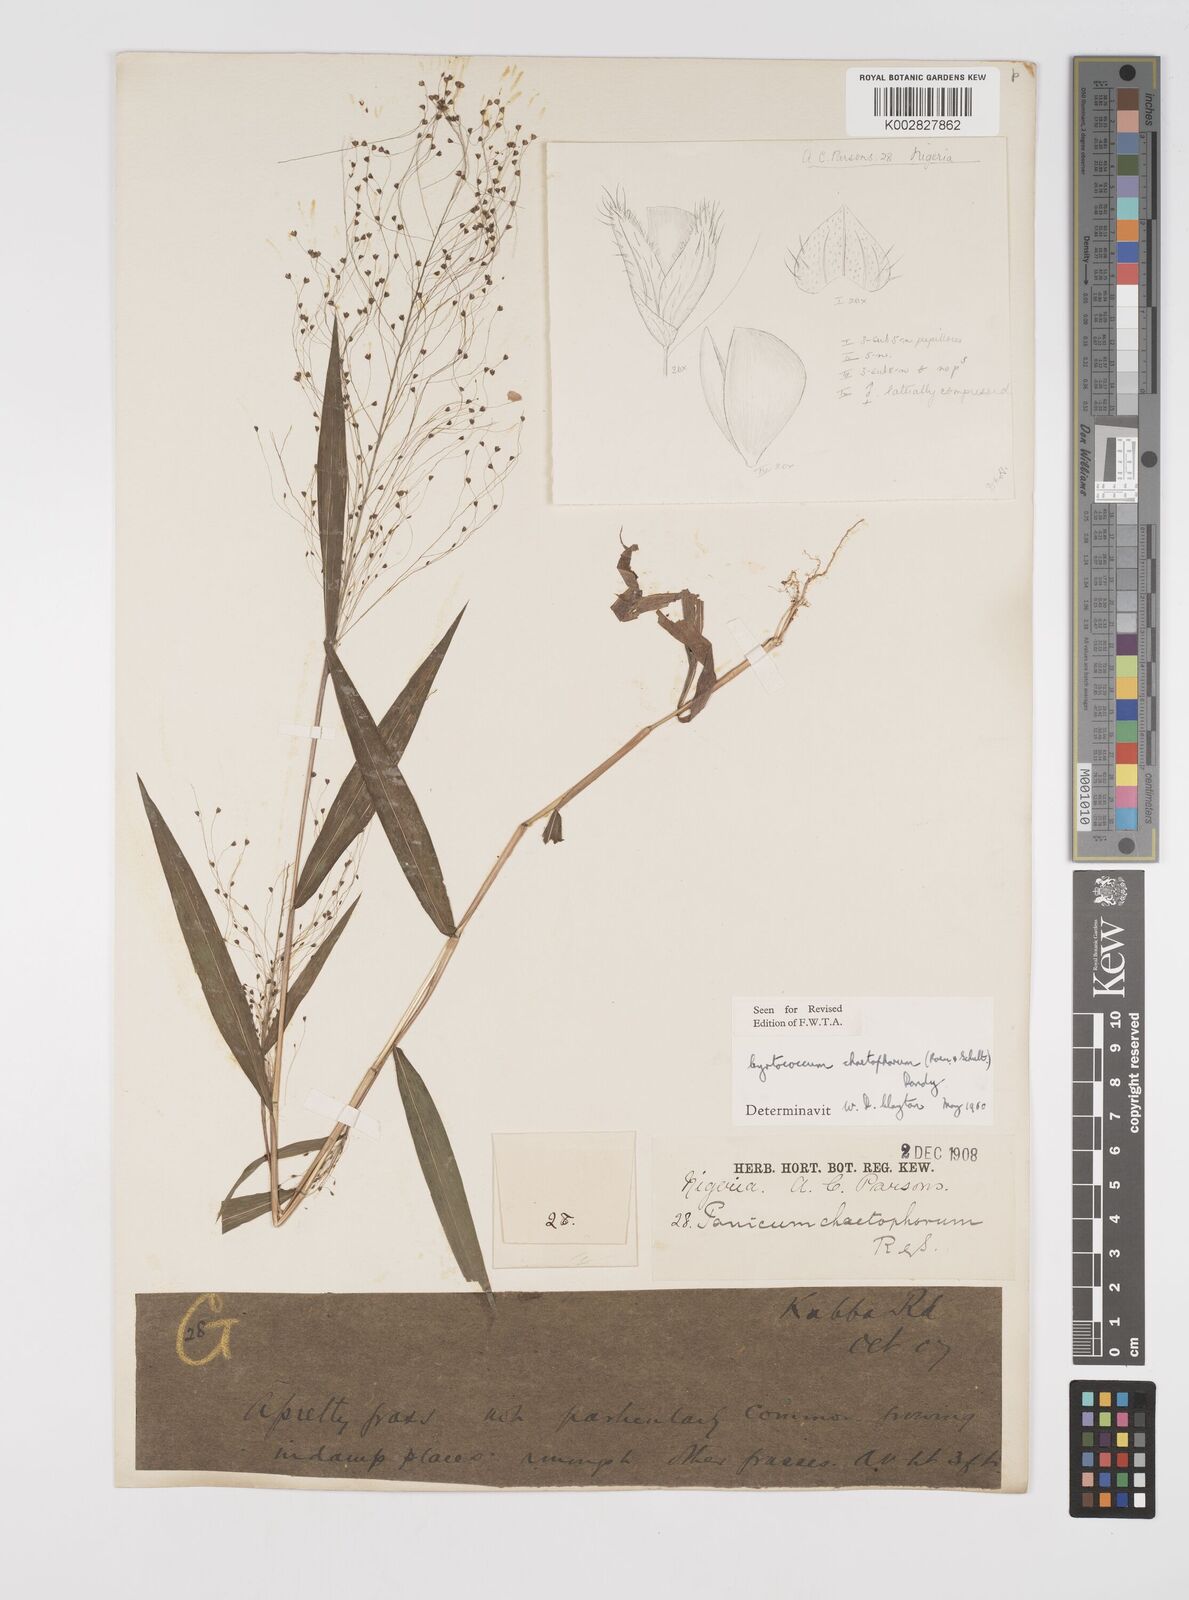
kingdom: Plantae
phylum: Tracheophyta
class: Liliopsida
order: Poales
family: Poaceae
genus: Cyrtococcum
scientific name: Cyrtococcum chaetophoron
